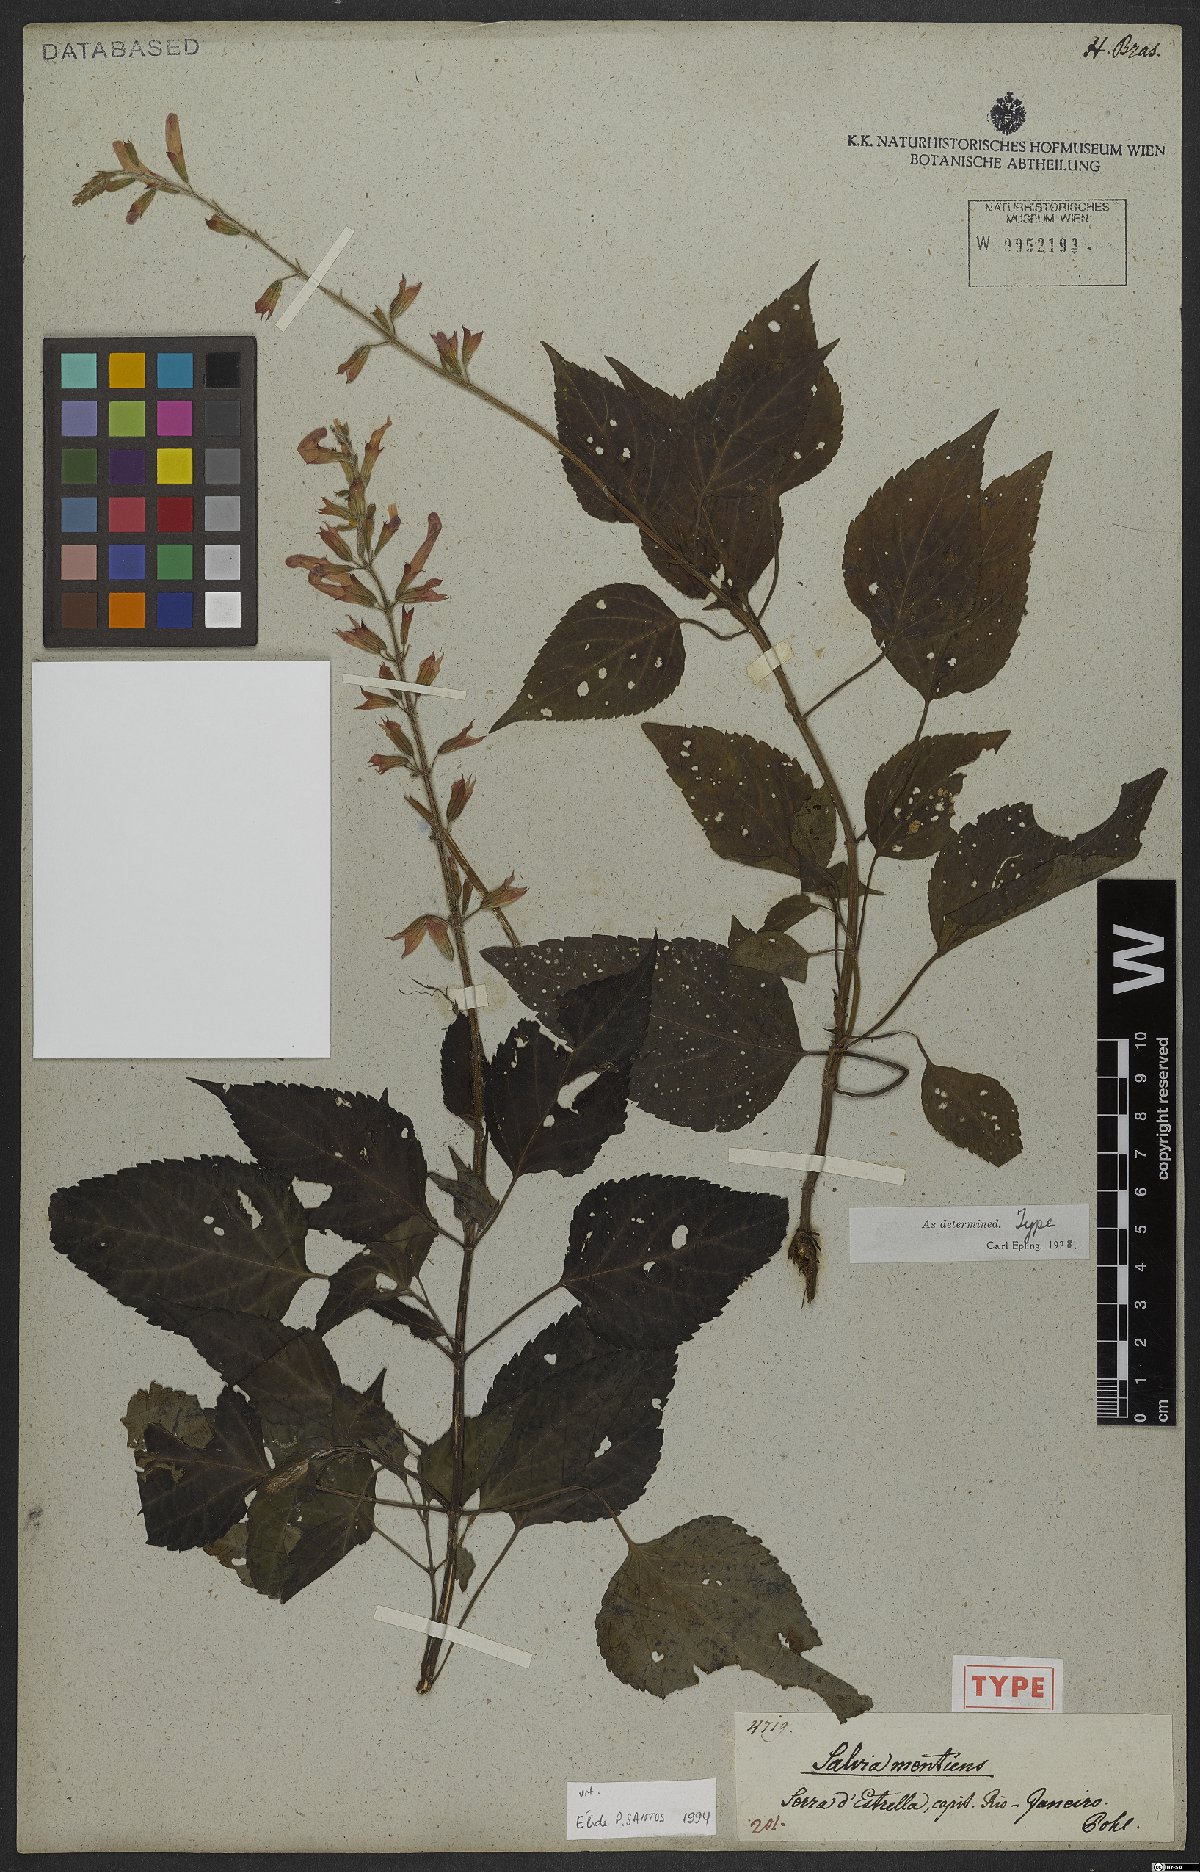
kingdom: Plantae
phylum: Tracheophyta
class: Magnoliopsida
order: Lamiales
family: Lamiaceae
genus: Salvia
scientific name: Salvia mentiens
